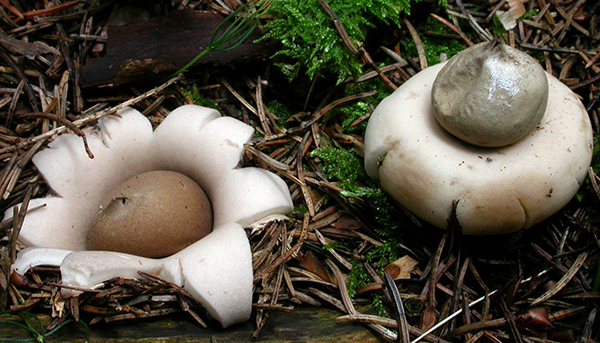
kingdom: Fungi
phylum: Basidiomycota
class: Agaricomycetes
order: Geastrales
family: Geastraceae
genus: Geastrum
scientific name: Geastrum fimbriatum
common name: frynset stjernebold
